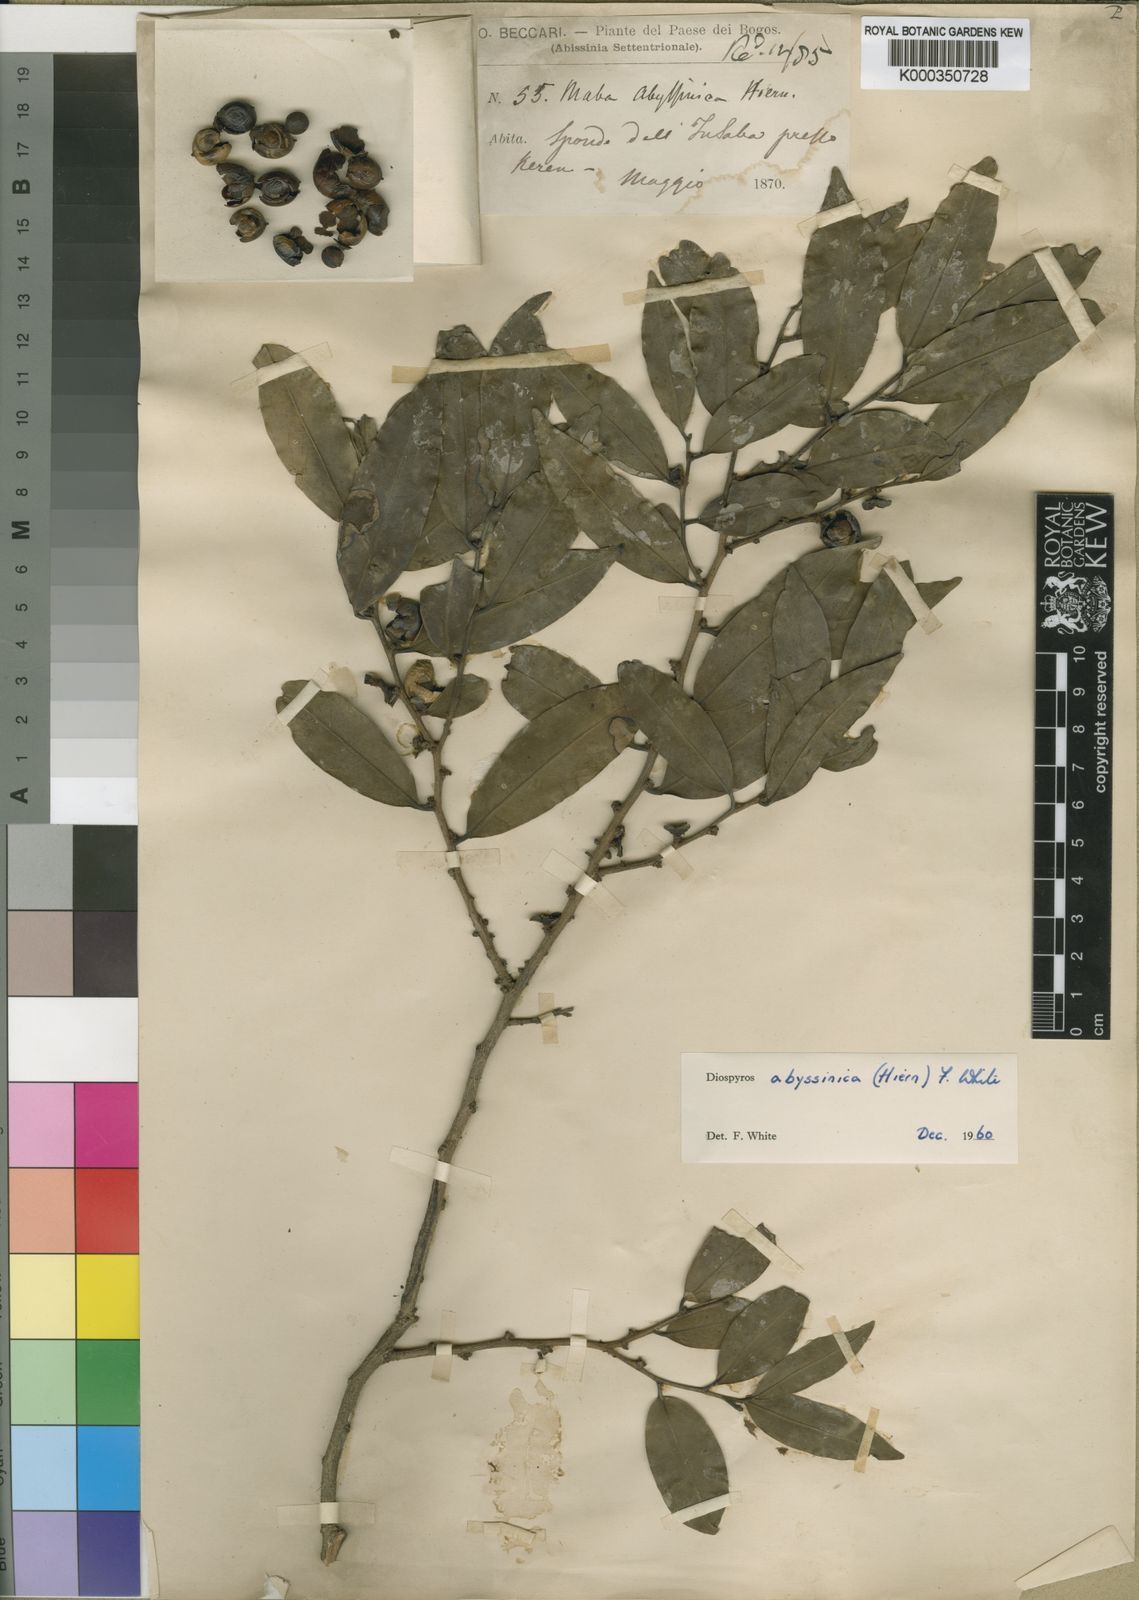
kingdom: Plantae
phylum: Tracheophyta
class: Magnoliopsida
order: Ericales
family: Ebenaceae
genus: Diospyros
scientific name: Diospyros abyssinica
